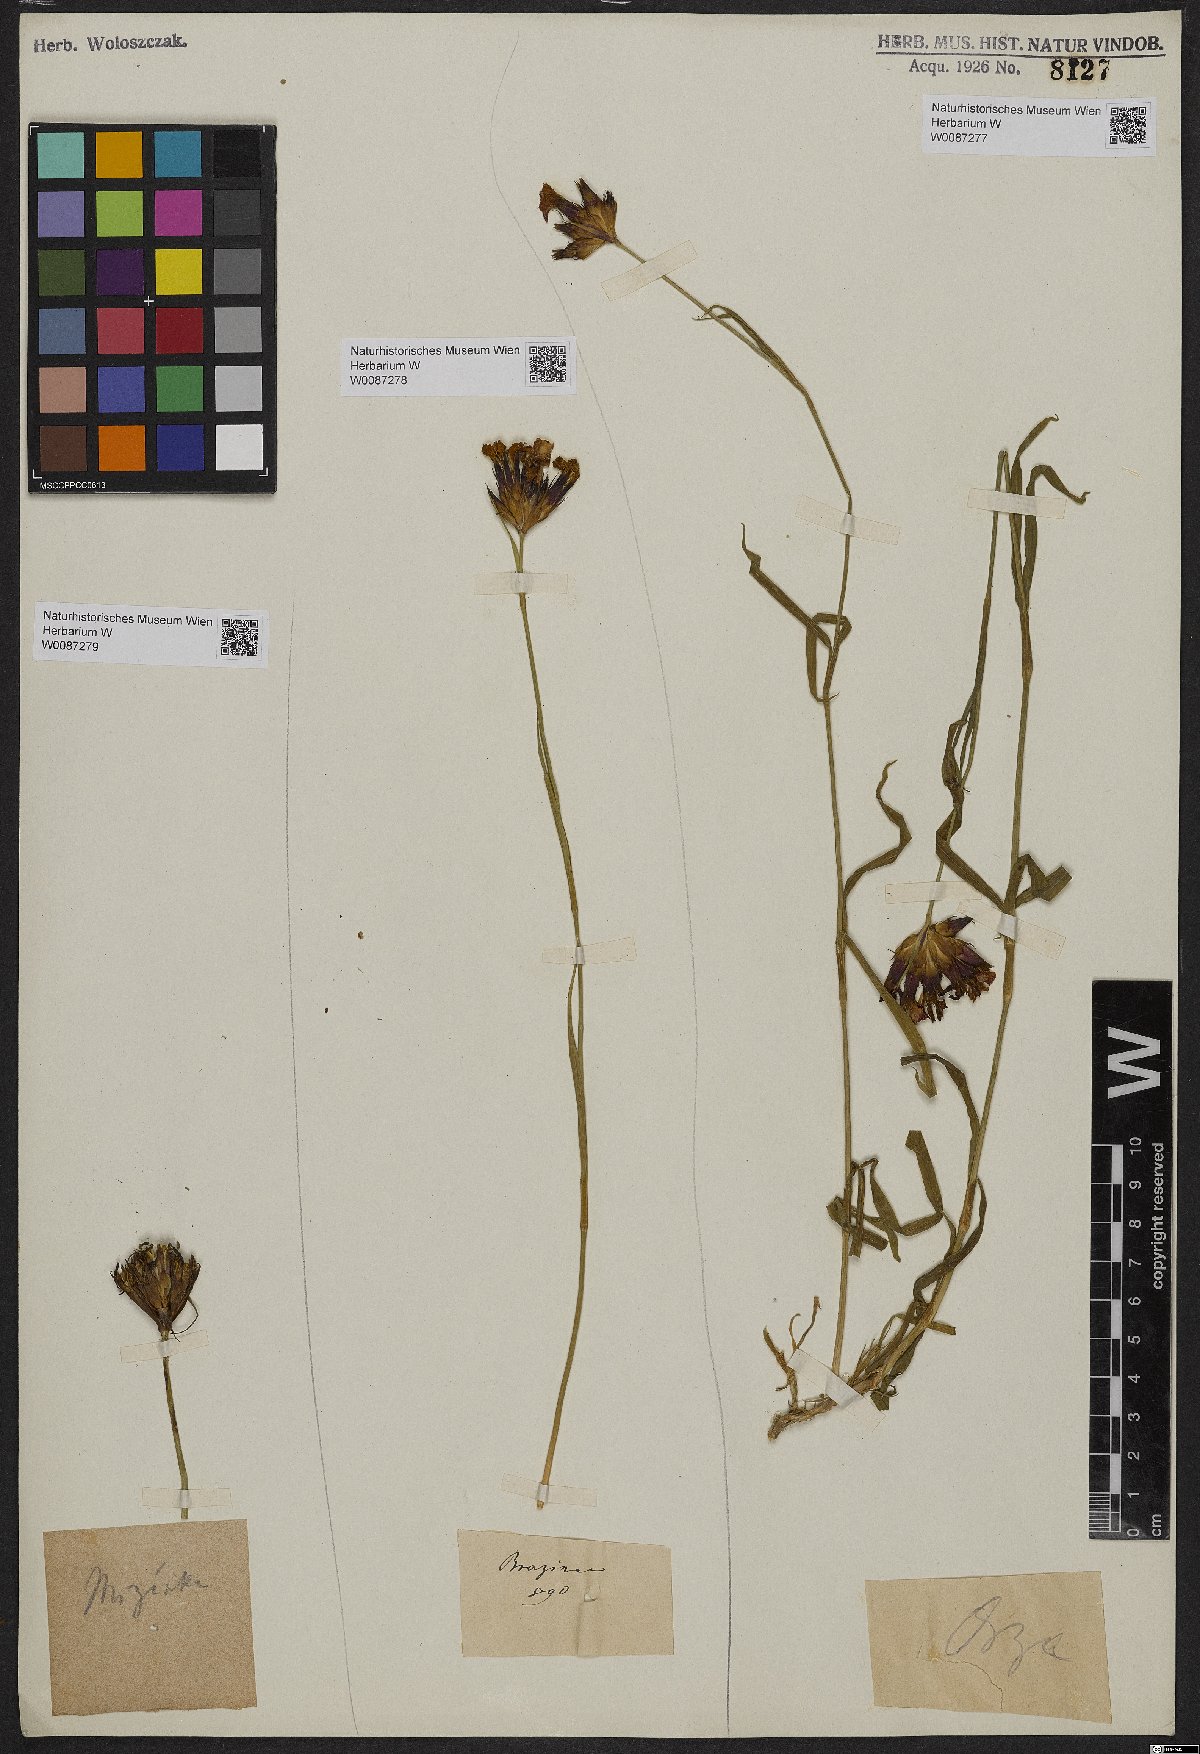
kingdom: Plantae
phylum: Tracheophyta
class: Magnoliopsida
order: Caryophyllales
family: Caryophyllaceae
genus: Dianthus
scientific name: Dianthus
